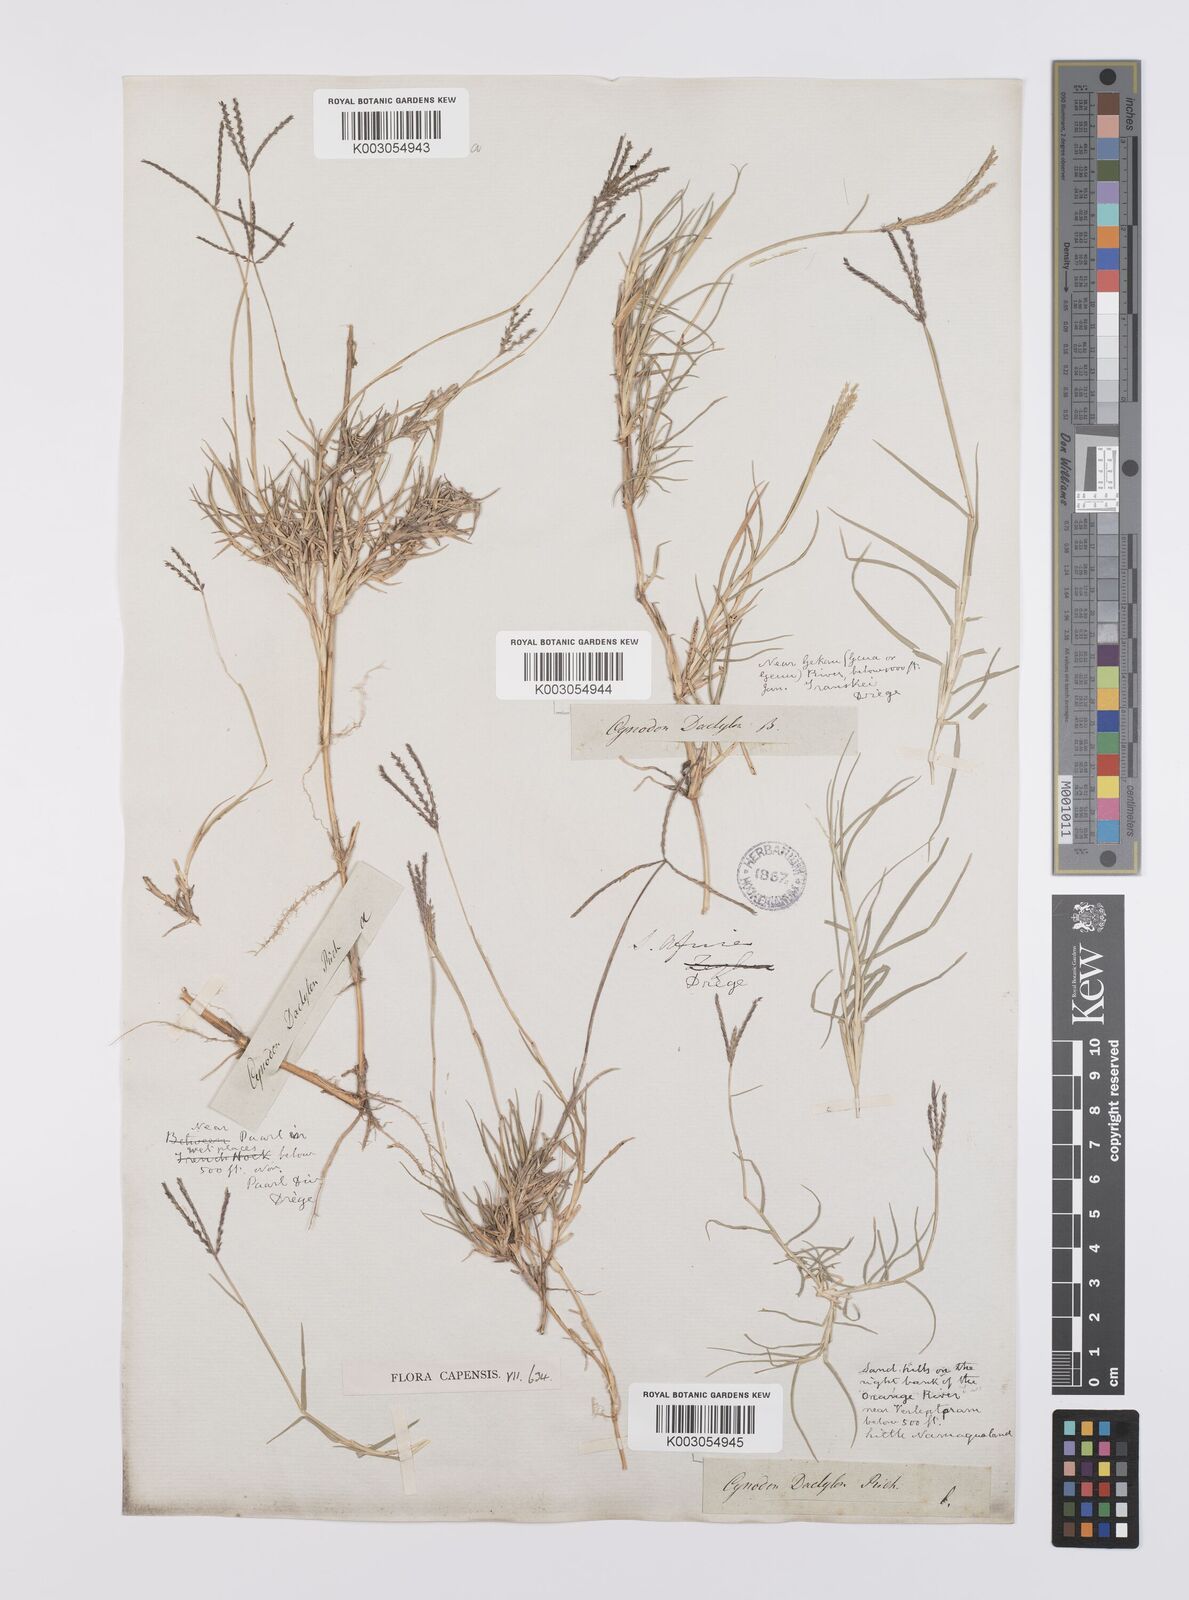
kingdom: Plantae
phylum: Tracheophyta
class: Liliopsida
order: Poales
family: Poaceae
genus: Cynodon
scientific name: Cynodon dactylon
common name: Bermuda grass
